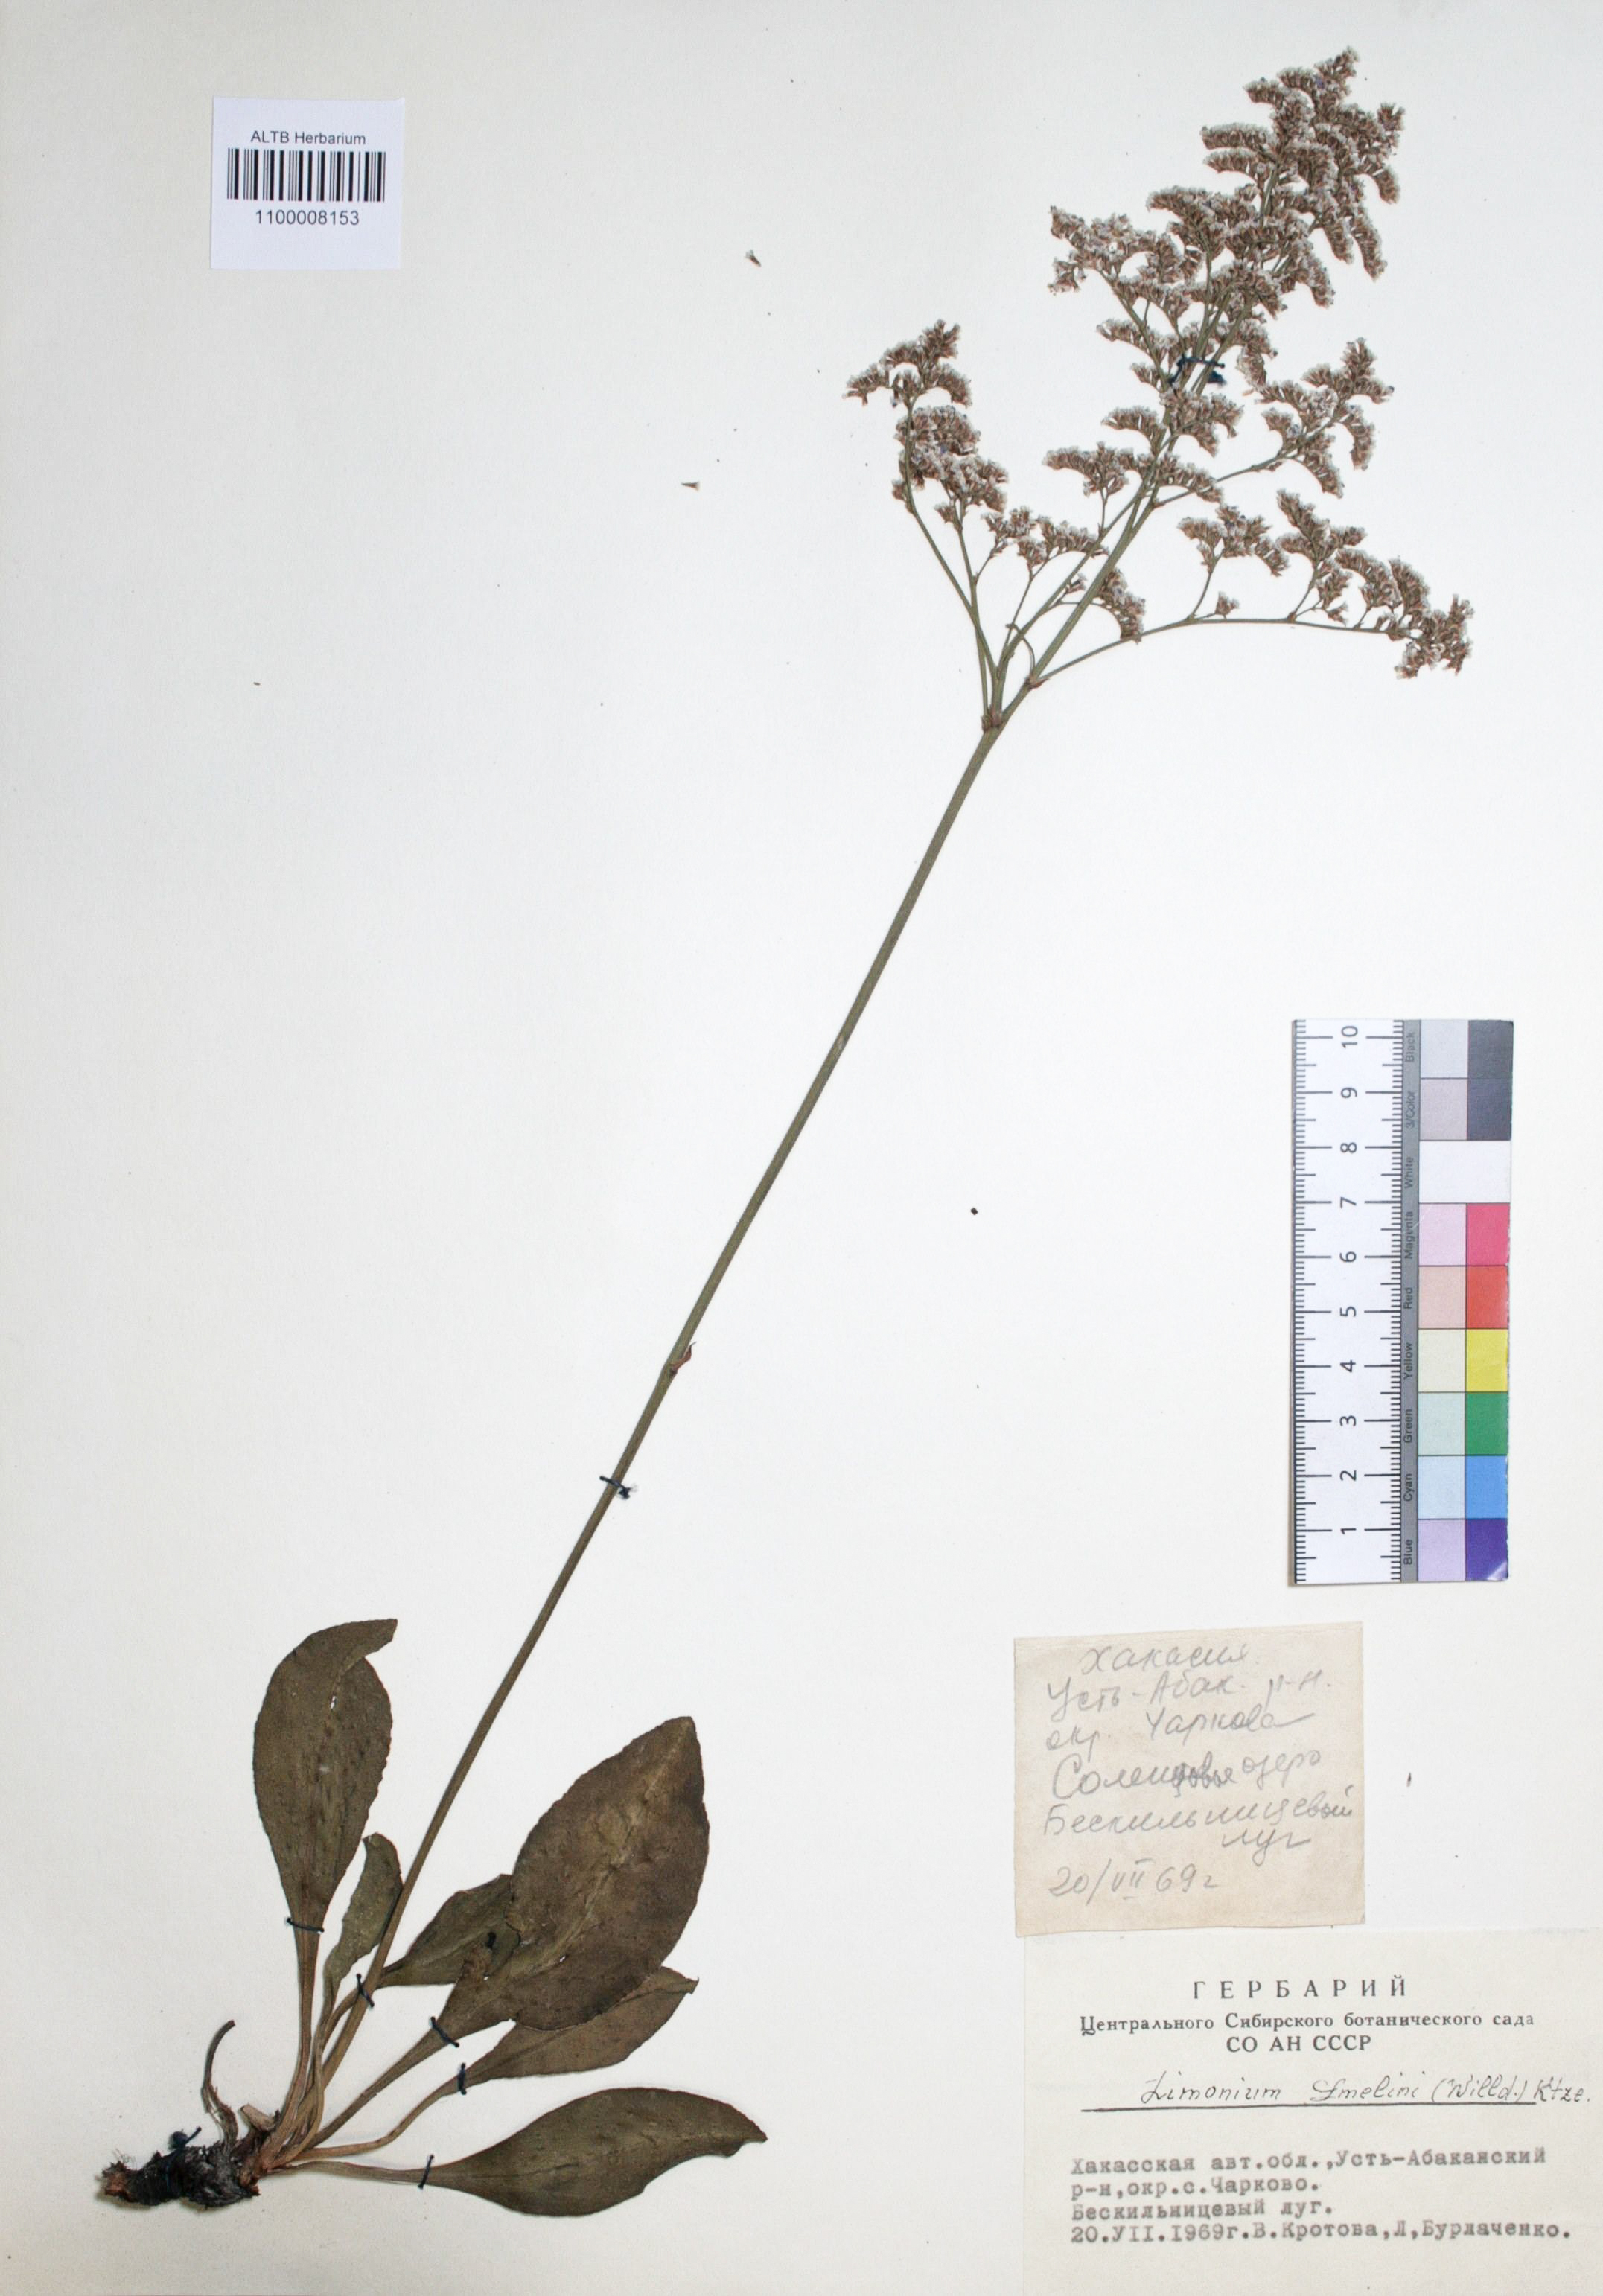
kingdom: Plantae
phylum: Tracheophyta
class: Magnoliopsida
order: Caryophyllales
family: Plumbaginaceae
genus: Limonium
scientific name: Limonium gmelini
